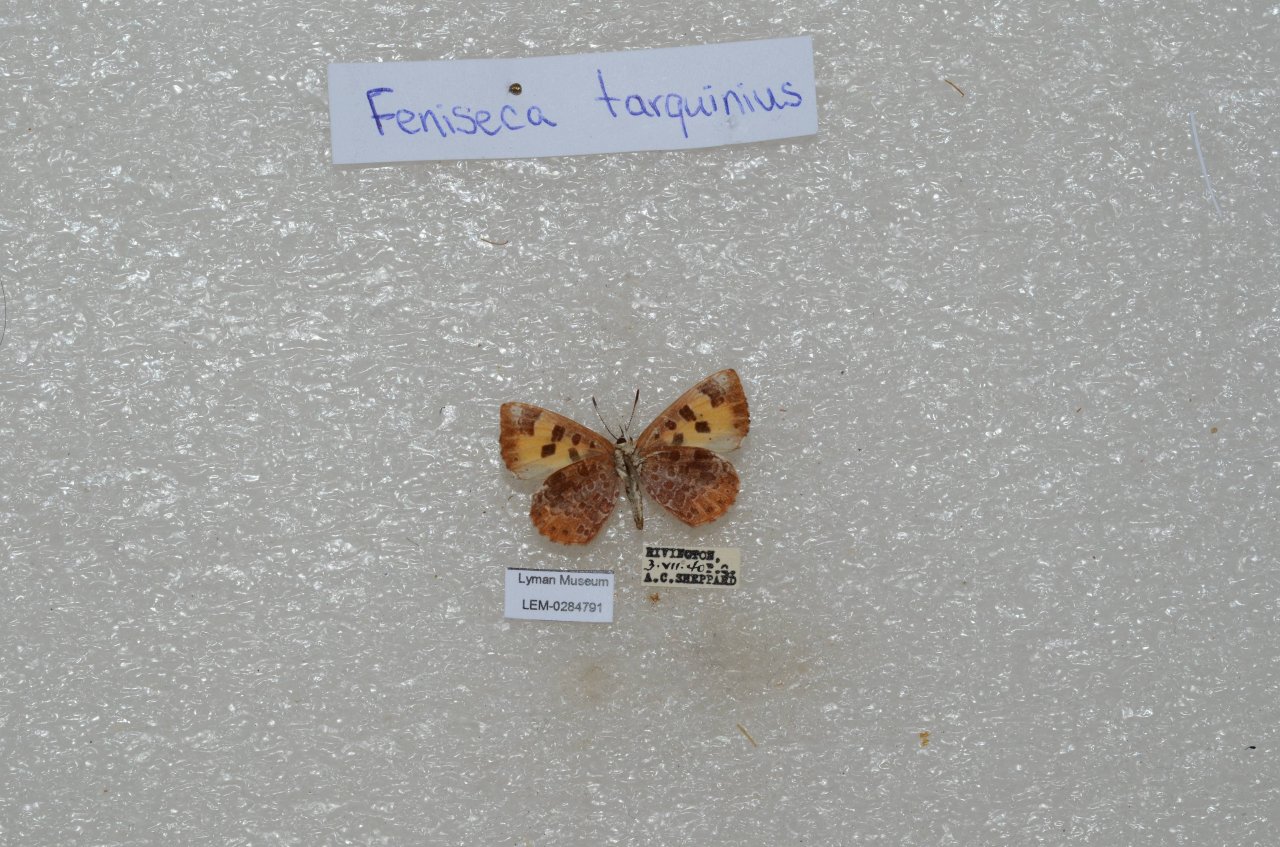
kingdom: Animalia
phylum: Arthropoda
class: Insecta
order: Lepidoptera
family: Lycaenidae
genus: Feniseca
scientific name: Feniseca tarquinius
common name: Harvester
